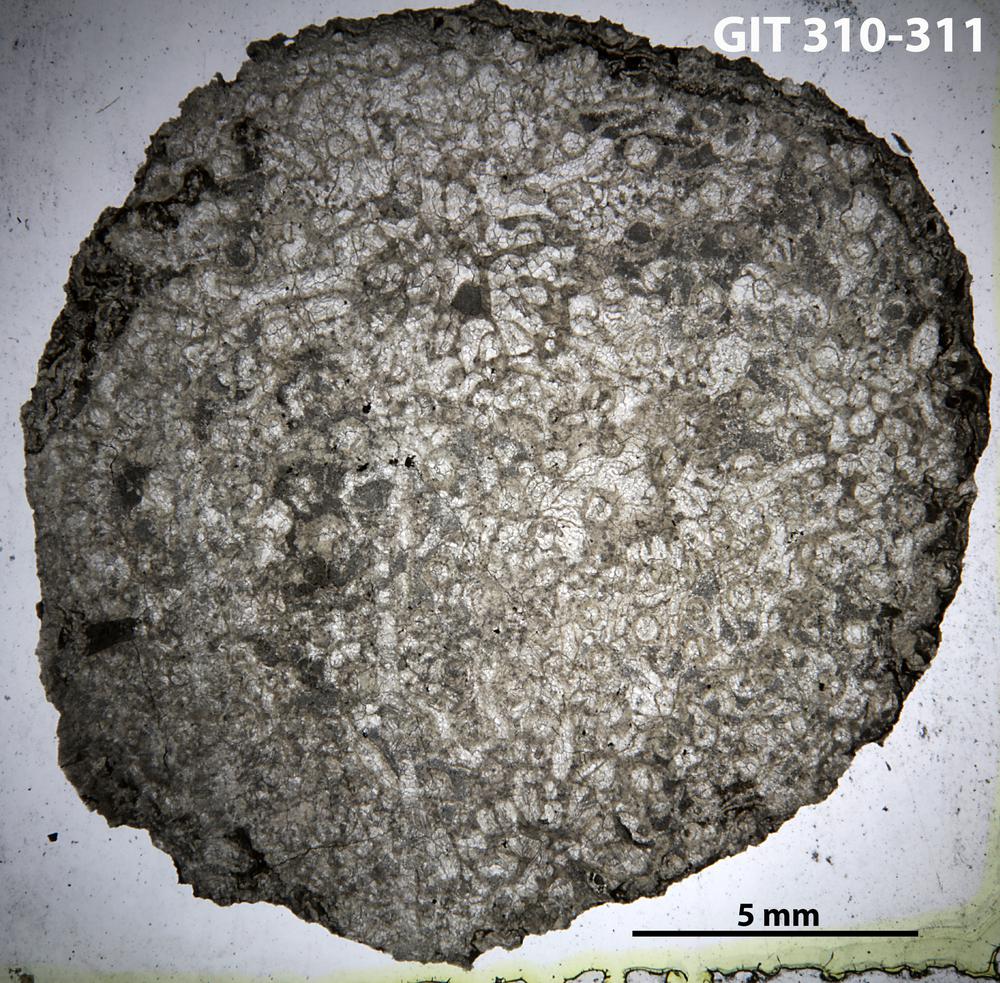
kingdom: Animalia
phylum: Cnidaria
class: Anthozoa
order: Heliolitina
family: Heliolitidae
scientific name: Heliolitidae
